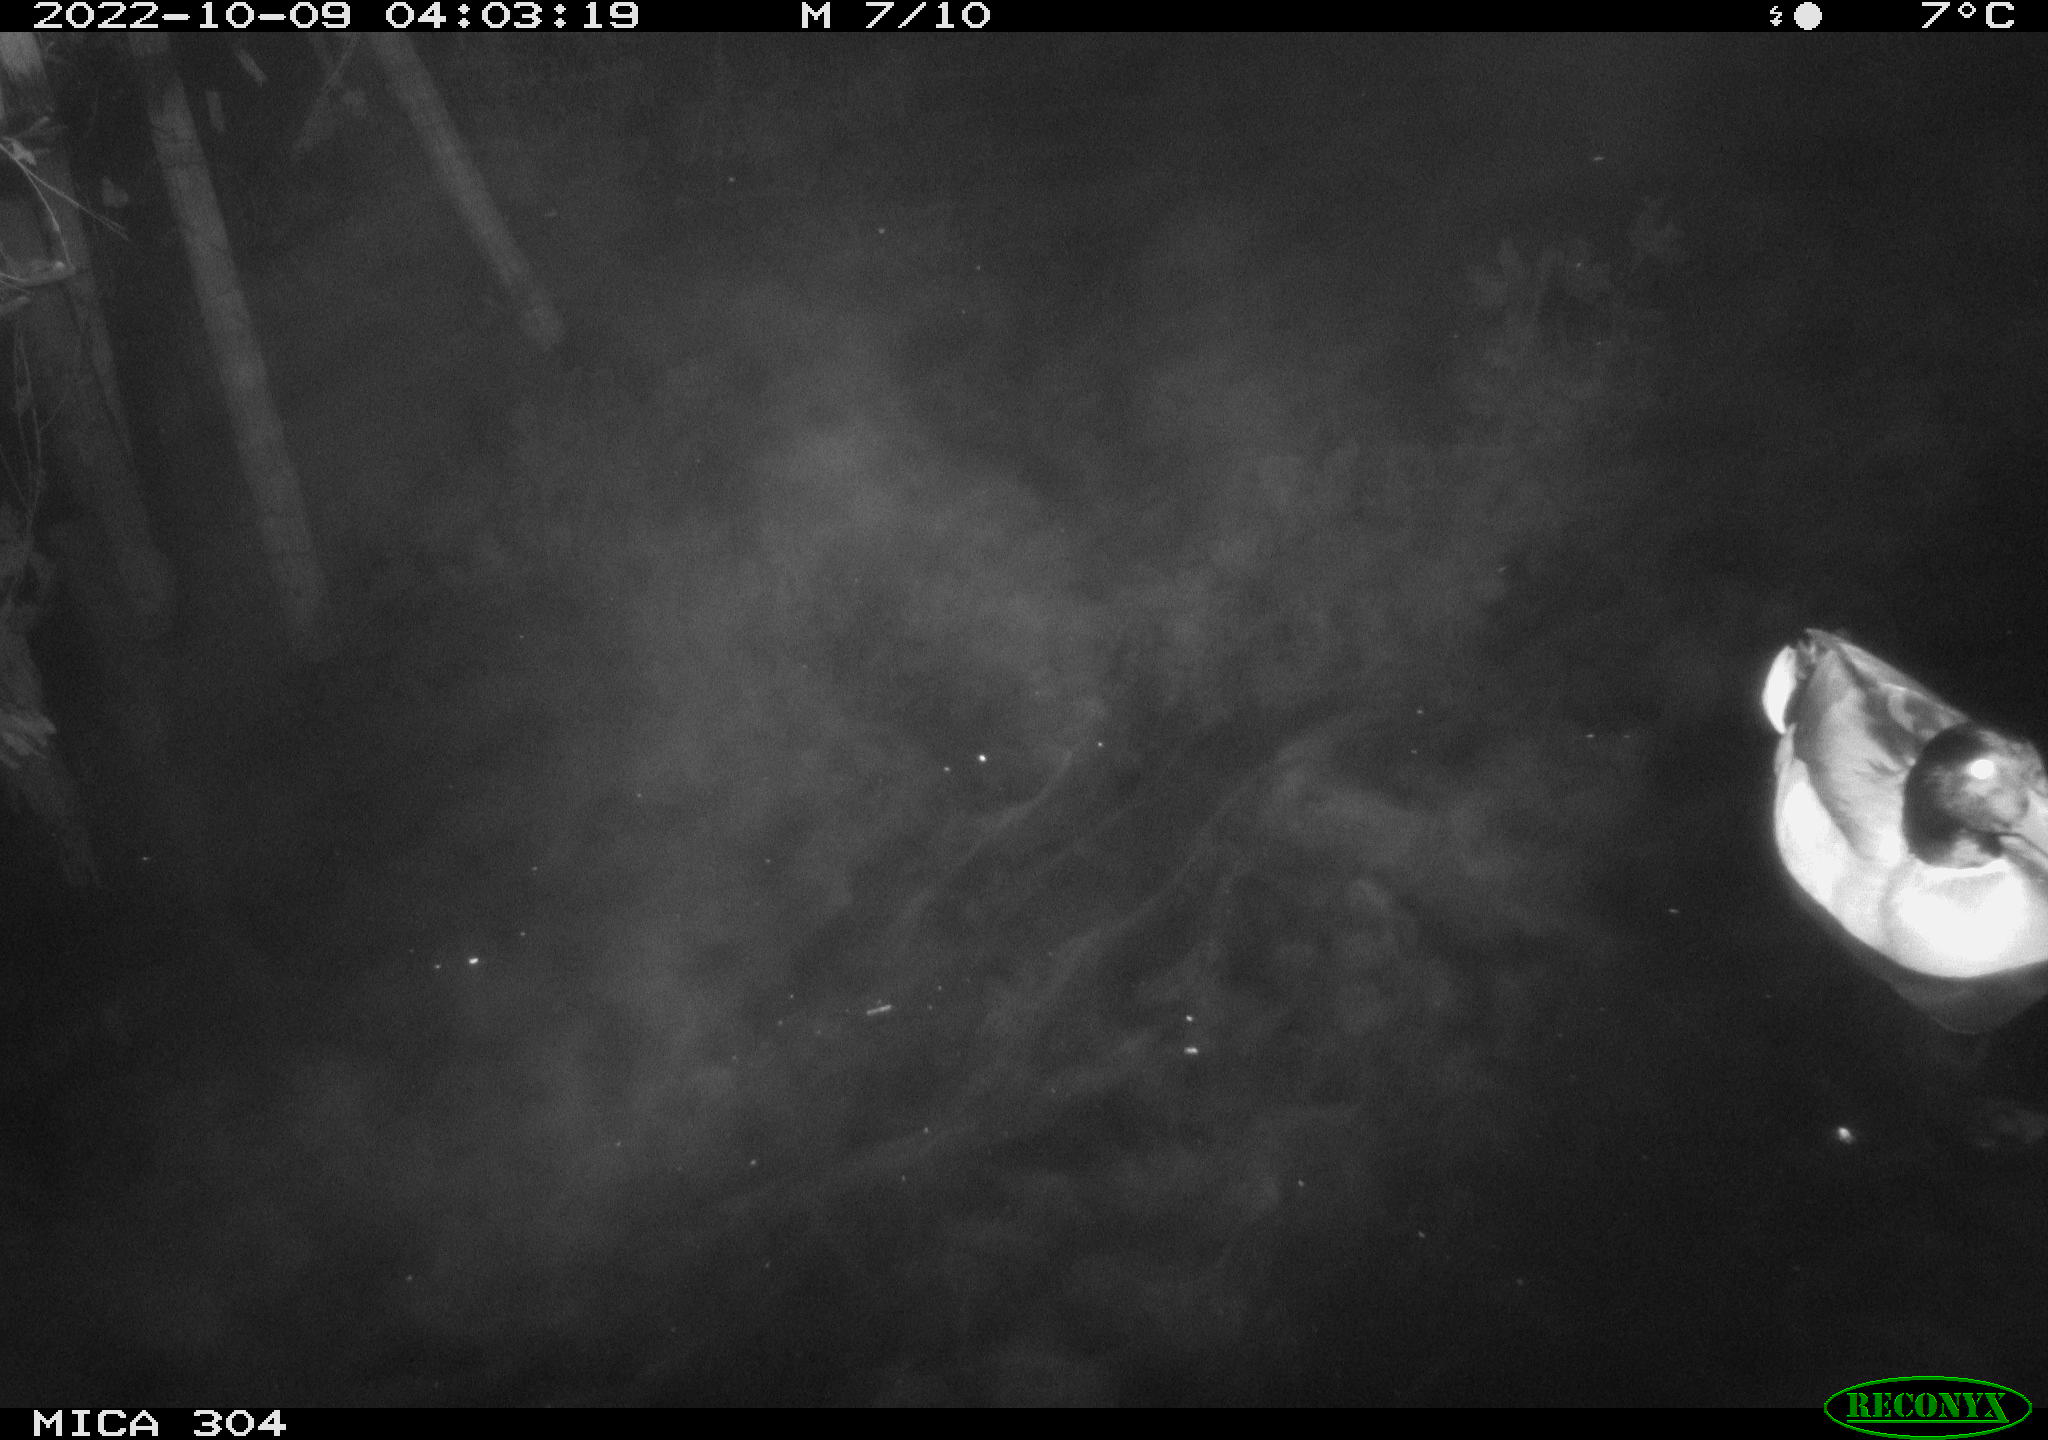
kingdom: Animalia
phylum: Chordata
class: Aves
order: Anseriformes
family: Anatidae
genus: Anas
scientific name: Anas
